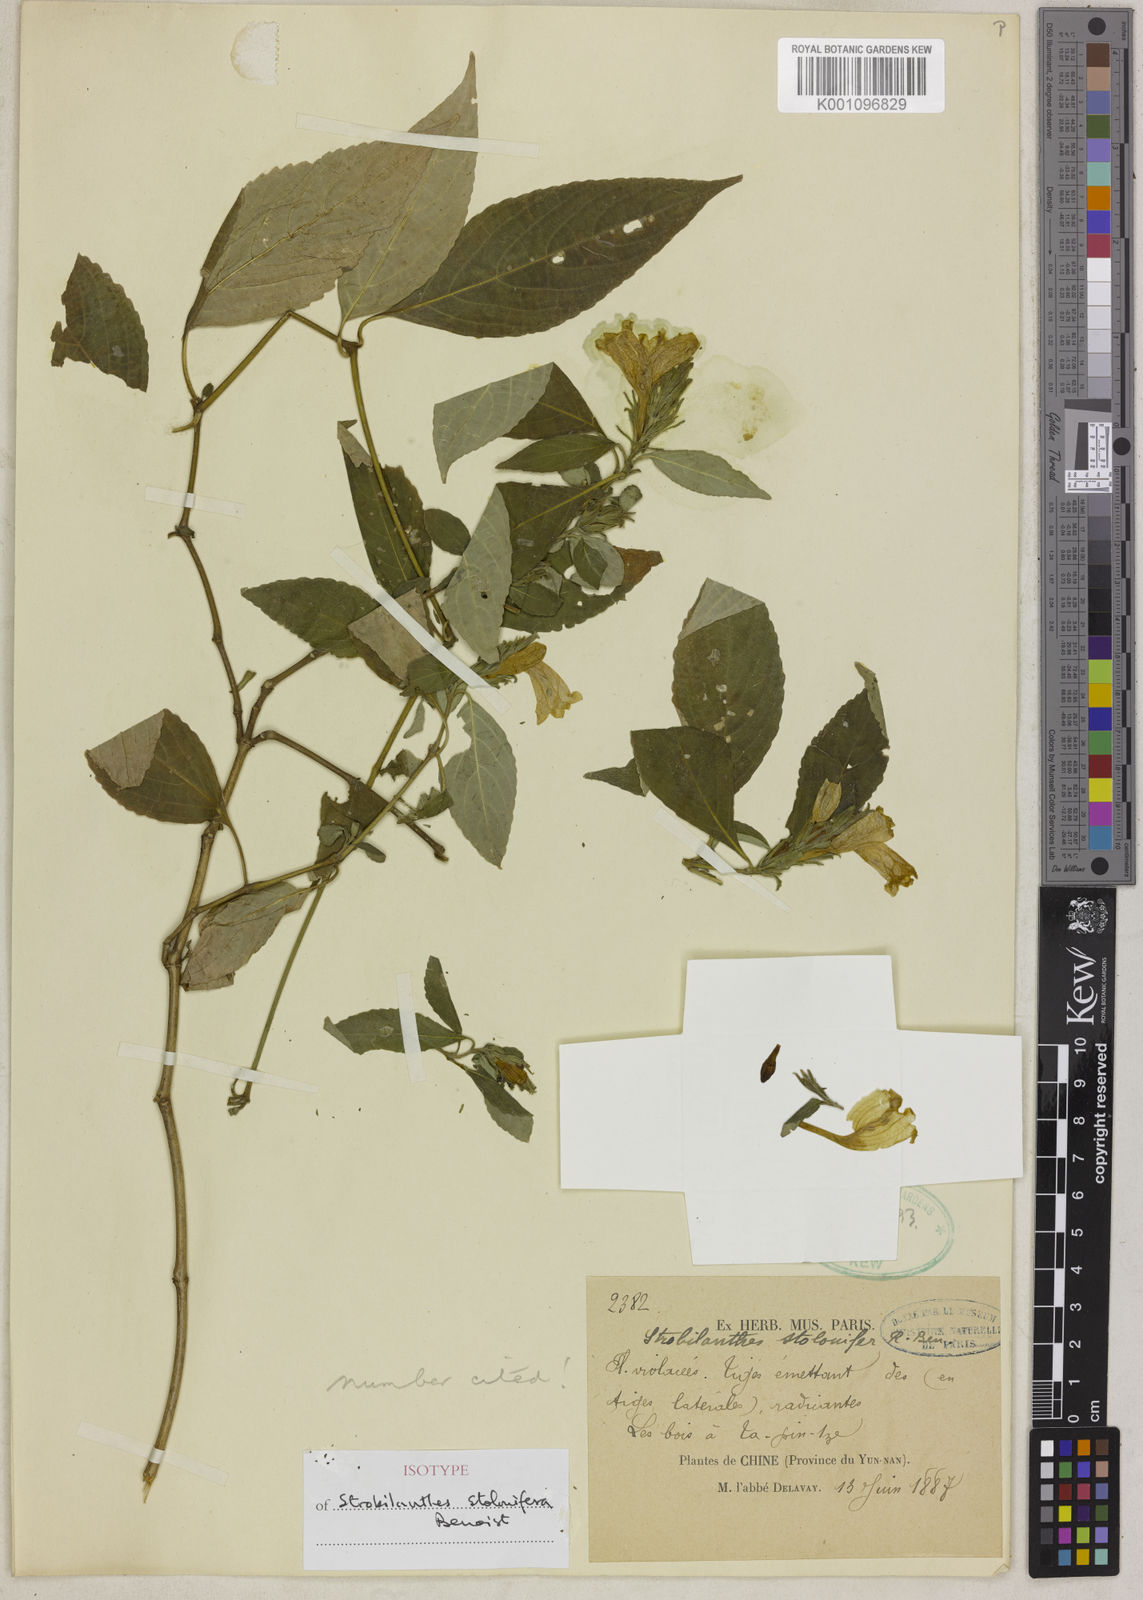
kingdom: Plantae
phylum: Tracheophyta
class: Magnoliopsida
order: Lamiales
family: Acanthaceae
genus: Strobilanthes
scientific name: Strobilanthes stolonifera
